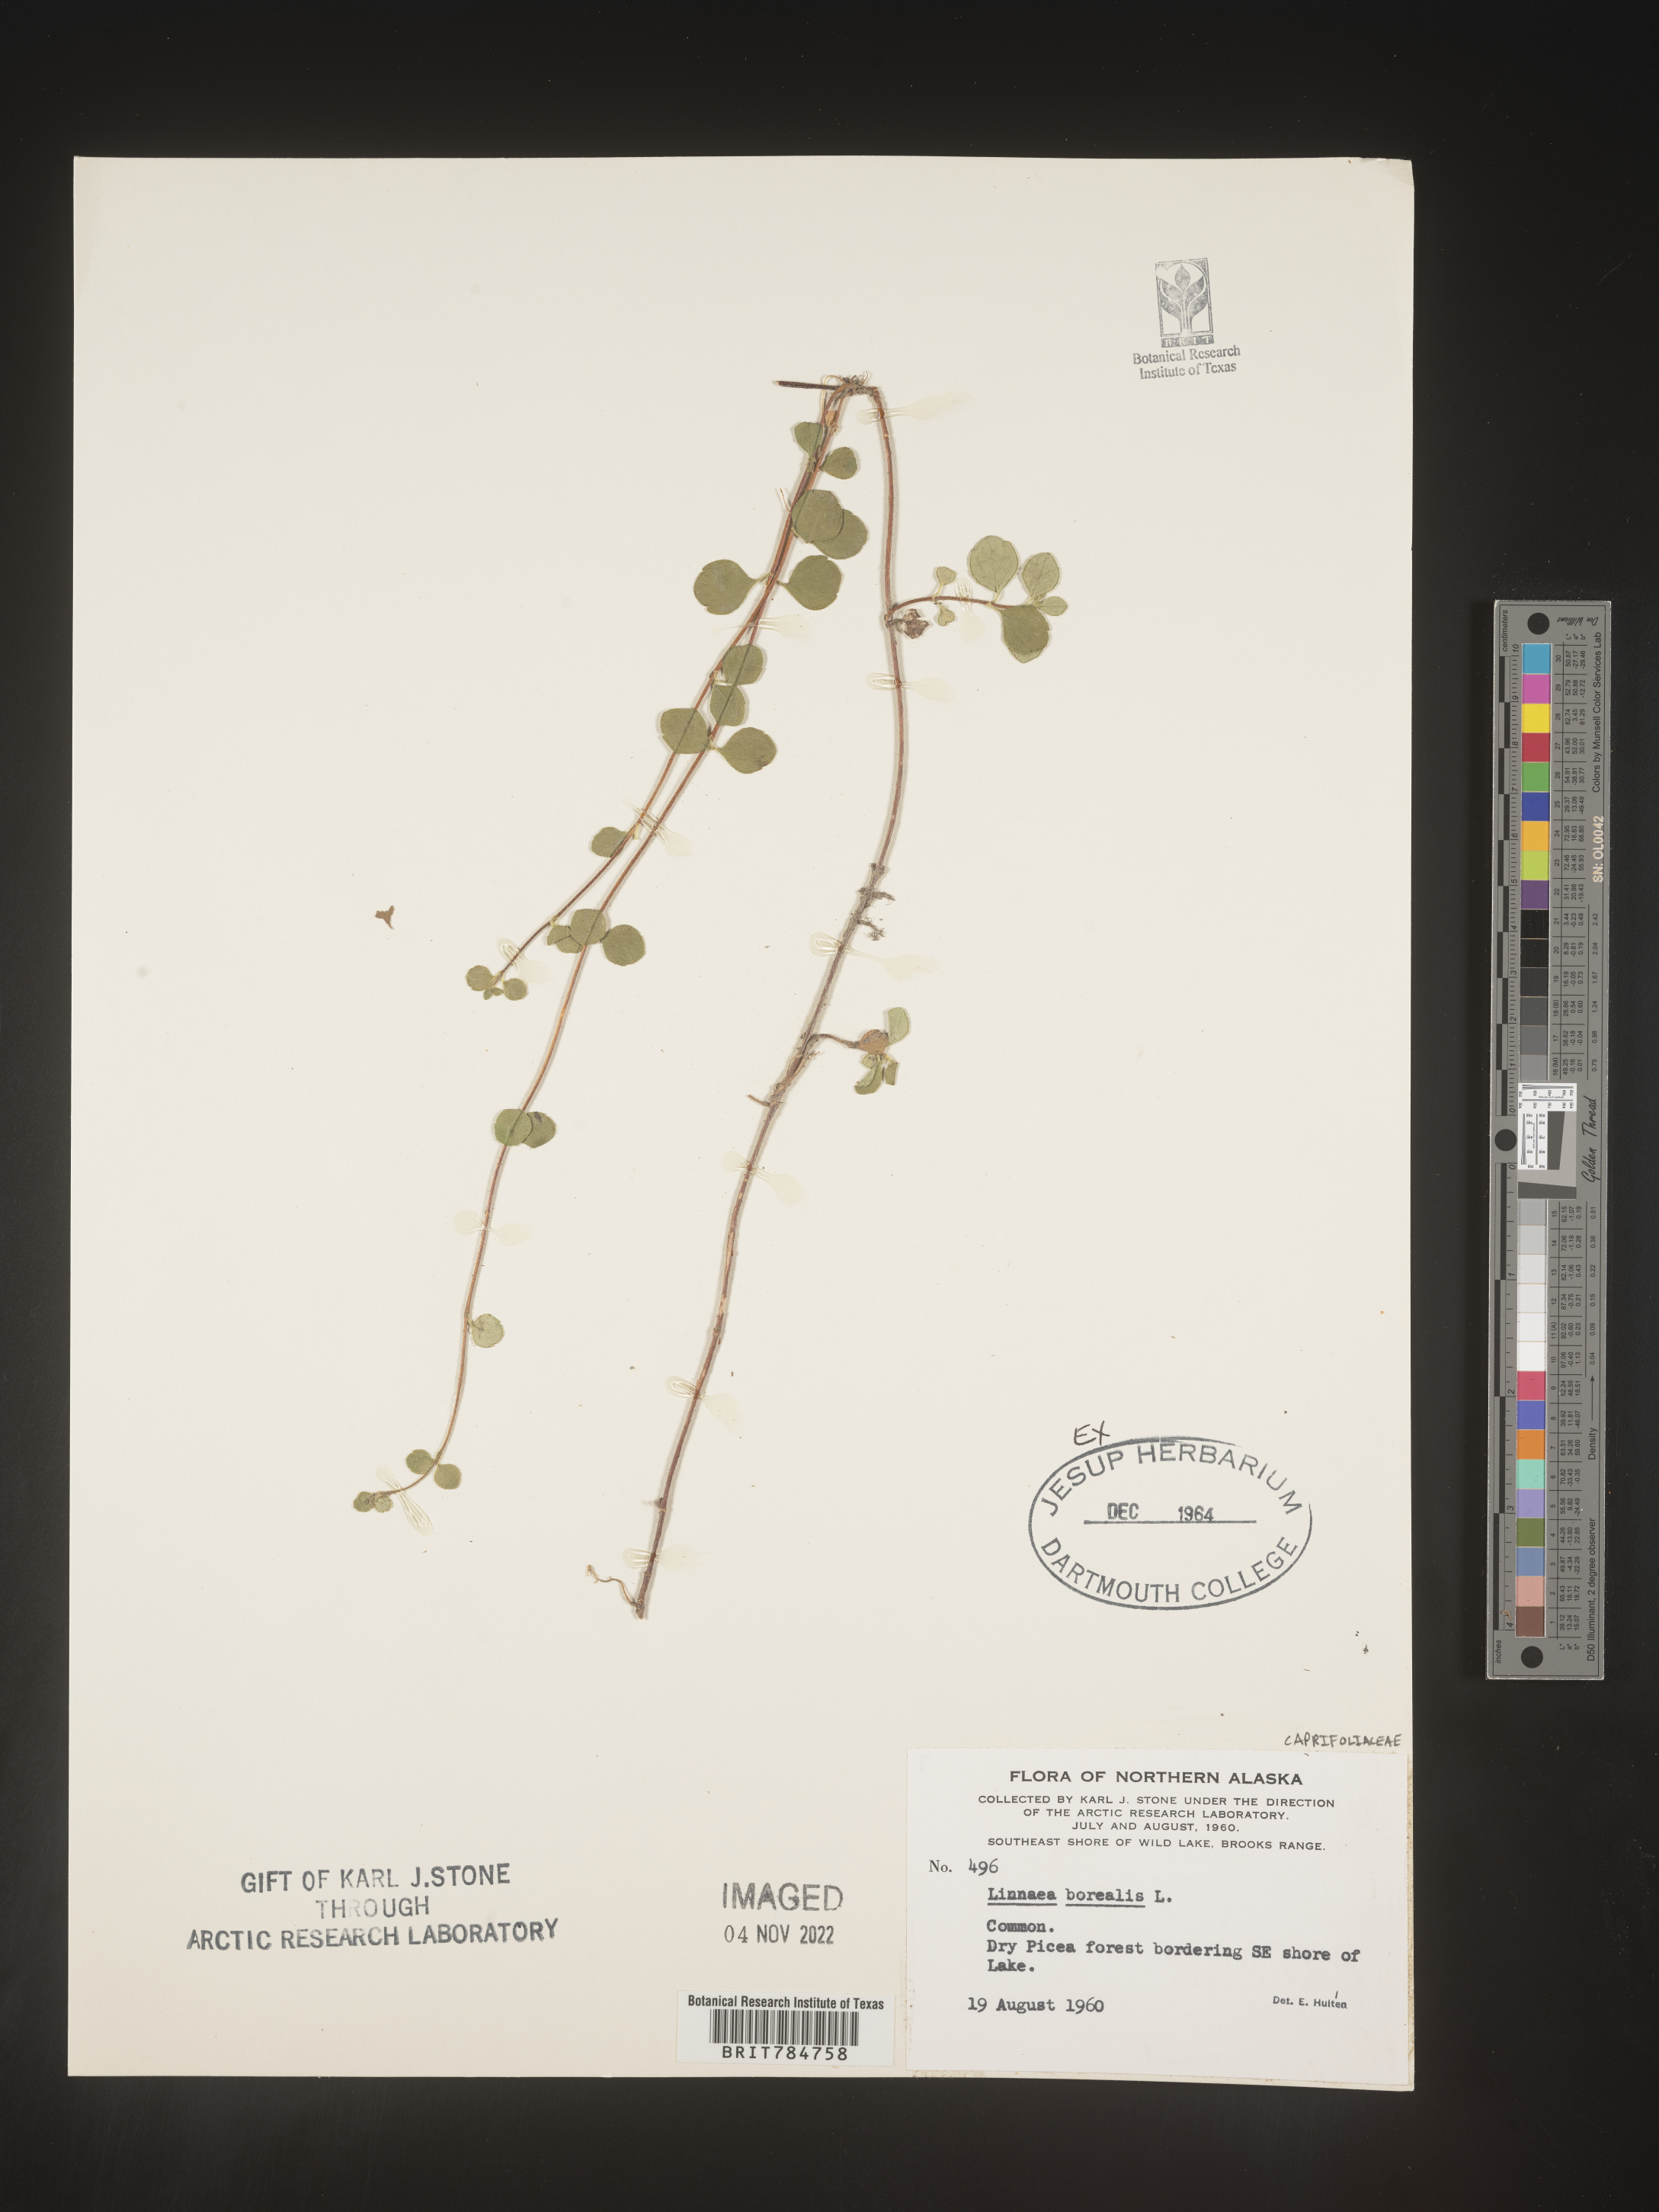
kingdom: Plantae
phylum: Tracheophyta
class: Magnoliopsida
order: Dipsacales
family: Caprifoliaceae
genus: Linnaea
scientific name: Linnaea borealis
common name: Twinflower
